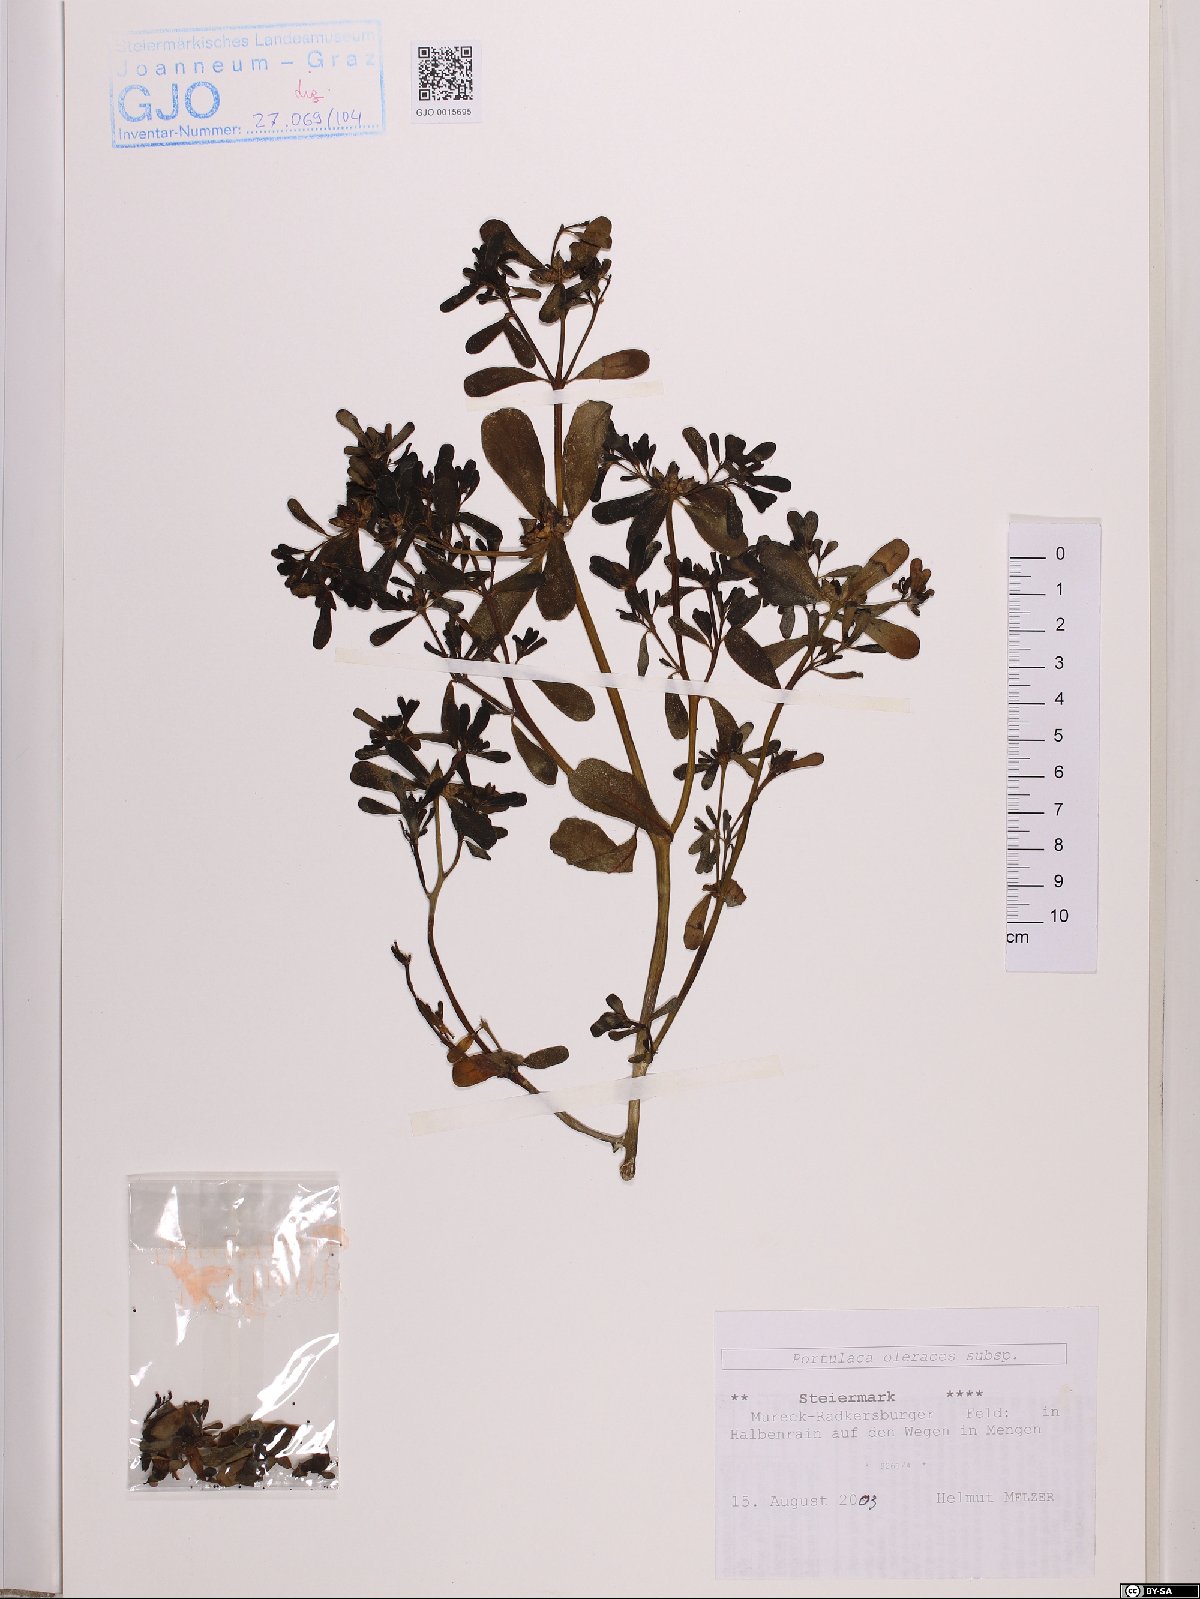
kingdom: Plantae
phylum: Tracheophyta
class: Magnoliopsida
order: Caryophyllales
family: Portulacaceae
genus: Portulaca
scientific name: Portulaca oleracea
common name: Common purslane
